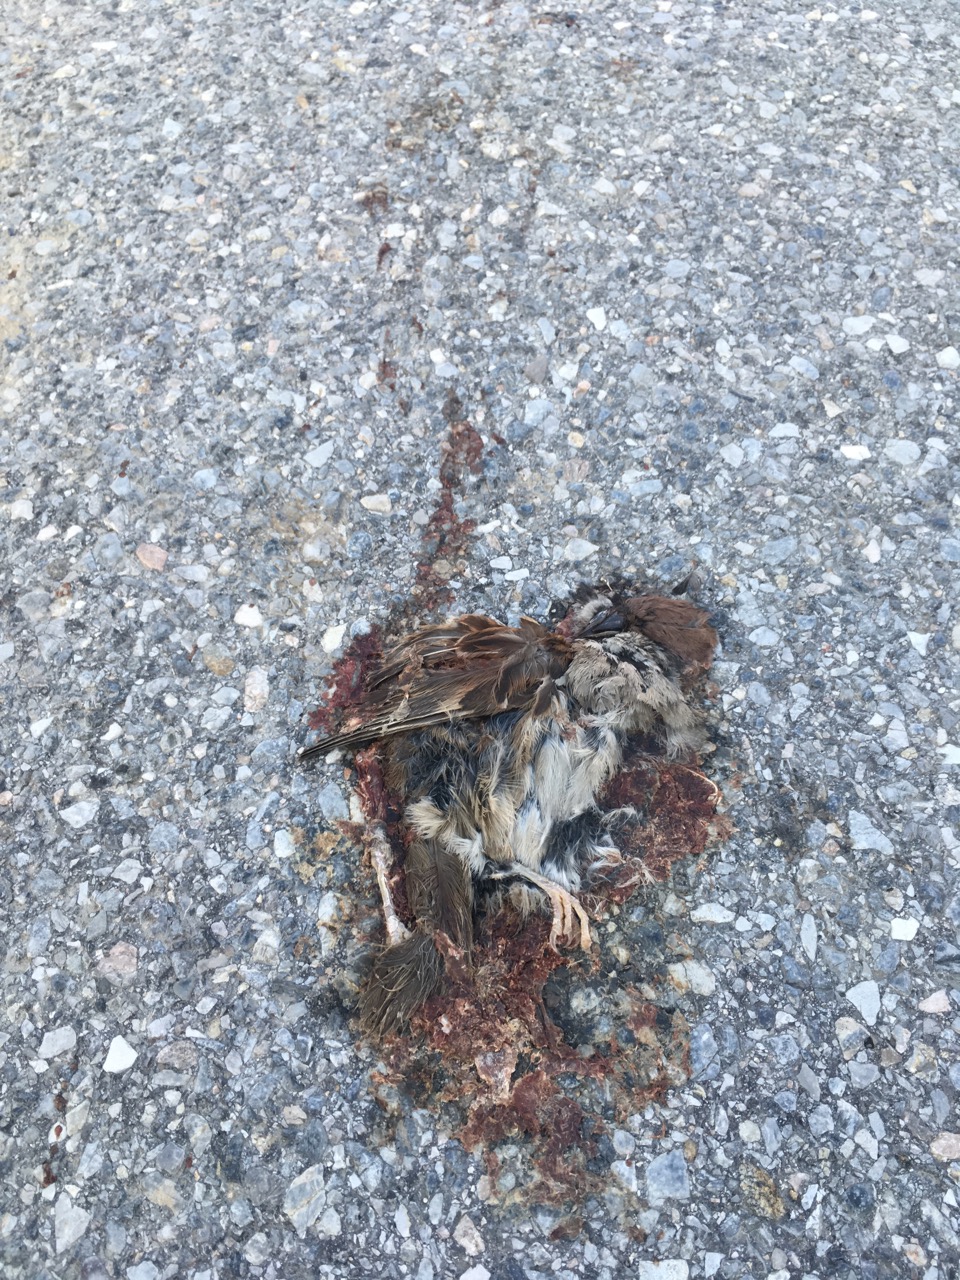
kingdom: Animalia
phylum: Chordata
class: Aves
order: Passeriformes
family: Passeridae
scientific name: Passeridae
